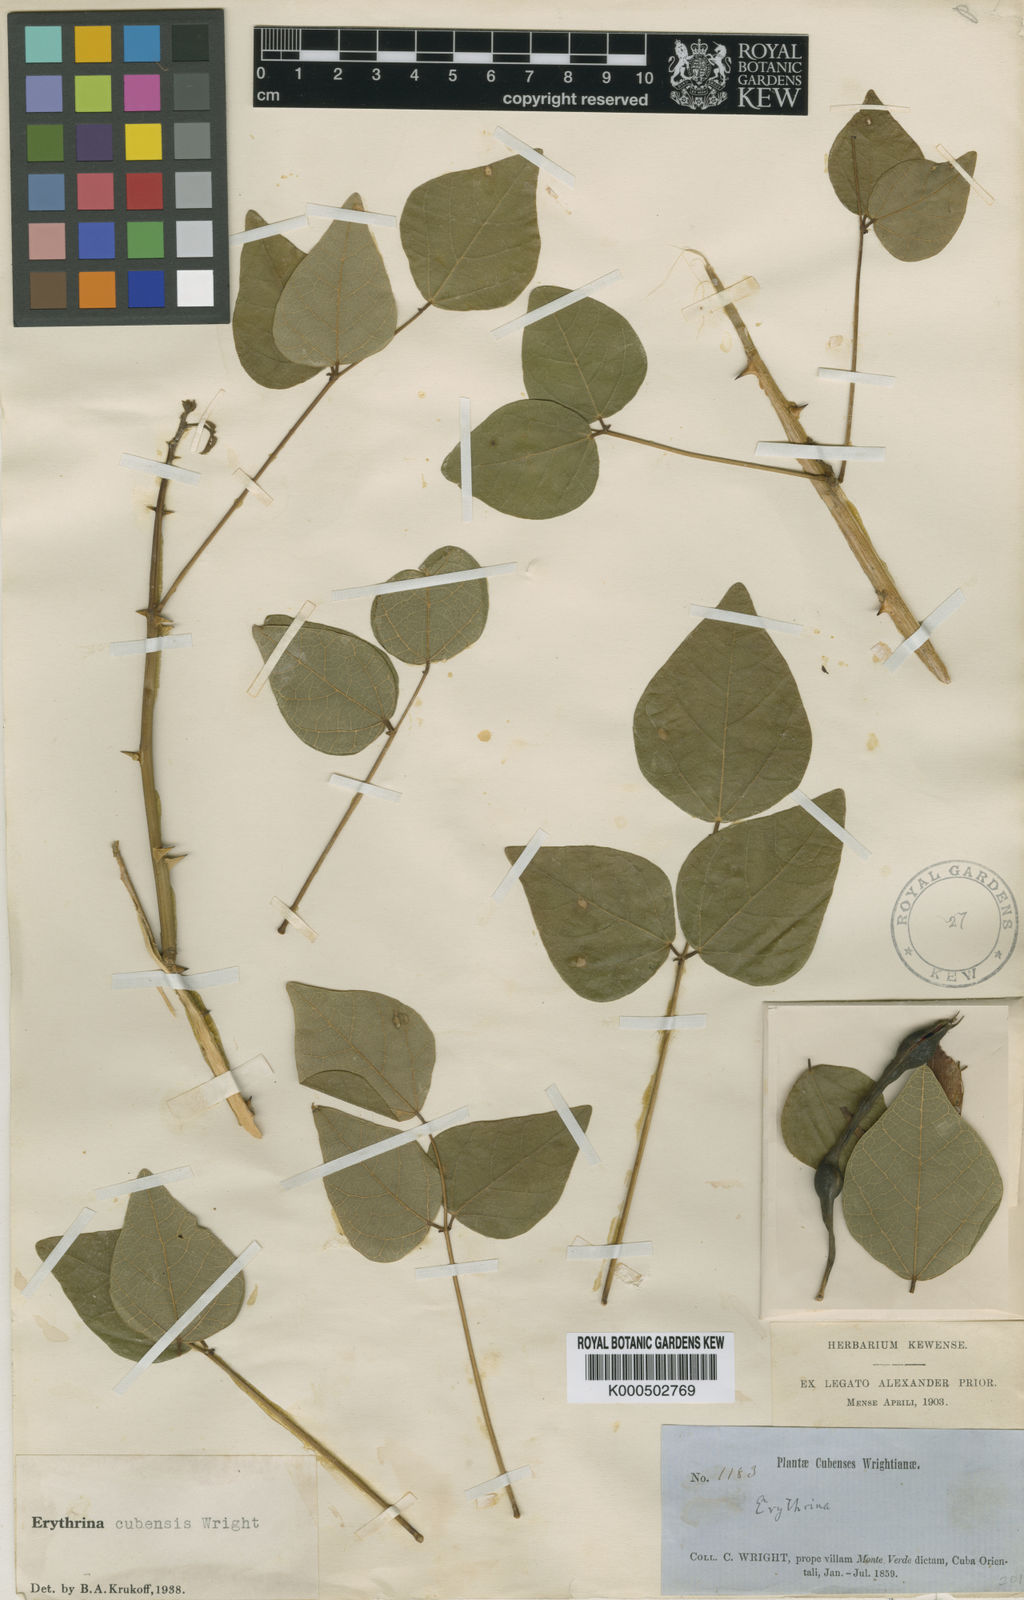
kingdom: Plantae
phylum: Tracheophyta
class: Magnoliopsida
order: Fabales
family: Fabaceae
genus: Erythrina
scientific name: Erythrina cubensis
